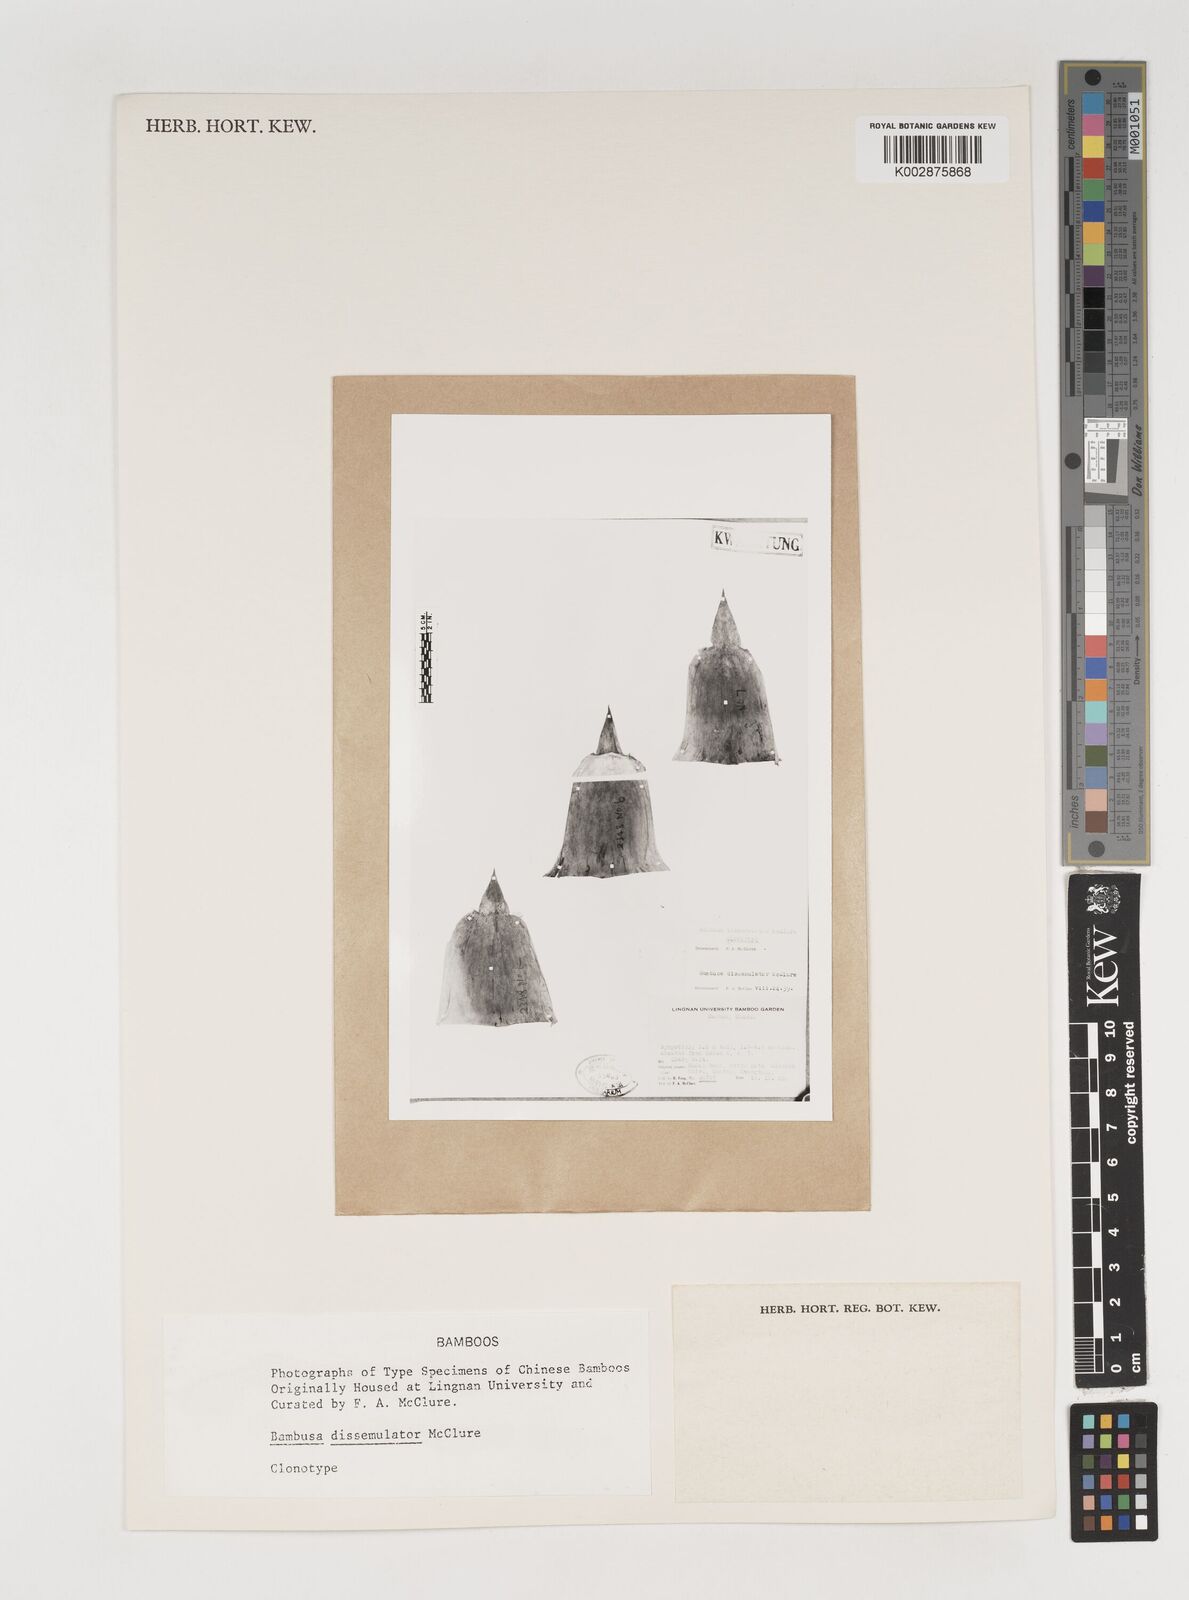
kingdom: Plantae
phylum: Tracheophyta
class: Liliopsida
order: Poales
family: Poaceae
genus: Bambusa
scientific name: Bambusa dissimulator
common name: Muddy bamboo
